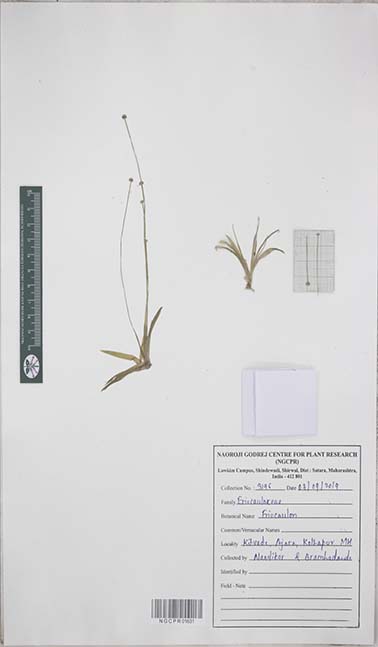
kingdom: Plantae
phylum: Tracheophyta
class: Liliopsida
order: Poales
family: Eriocaulaceae
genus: Eriocaulon
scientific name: Eriocaulon
